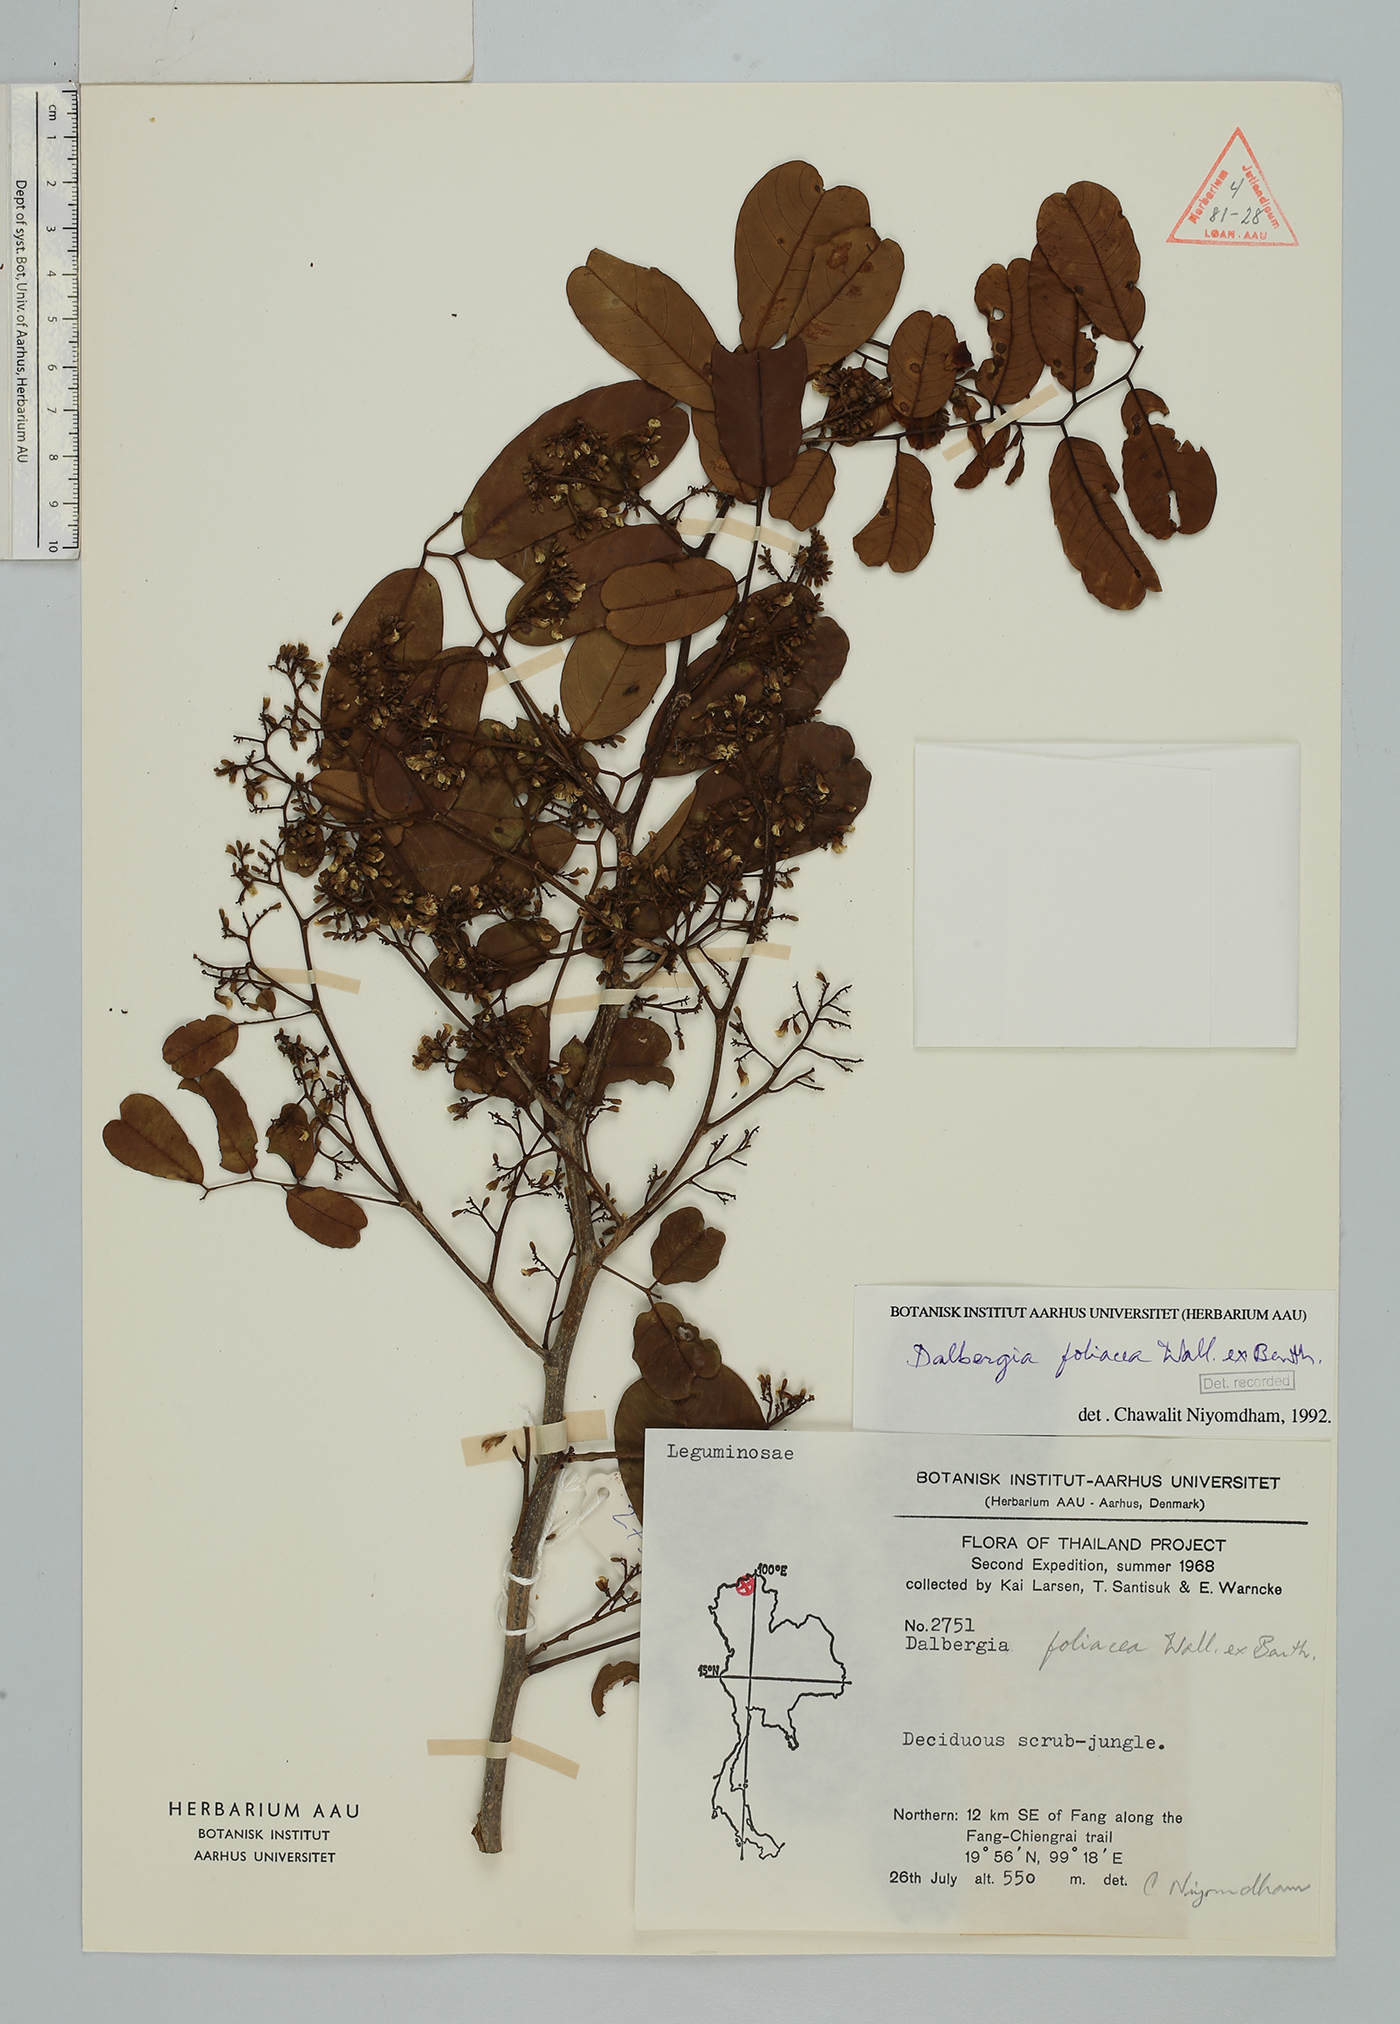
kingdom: Plantae
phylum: Tracheophyta
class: Magnoliopsida
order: Fabales
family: Fabaceae
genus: Dalbergia
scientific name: Dalbergia foliosa
